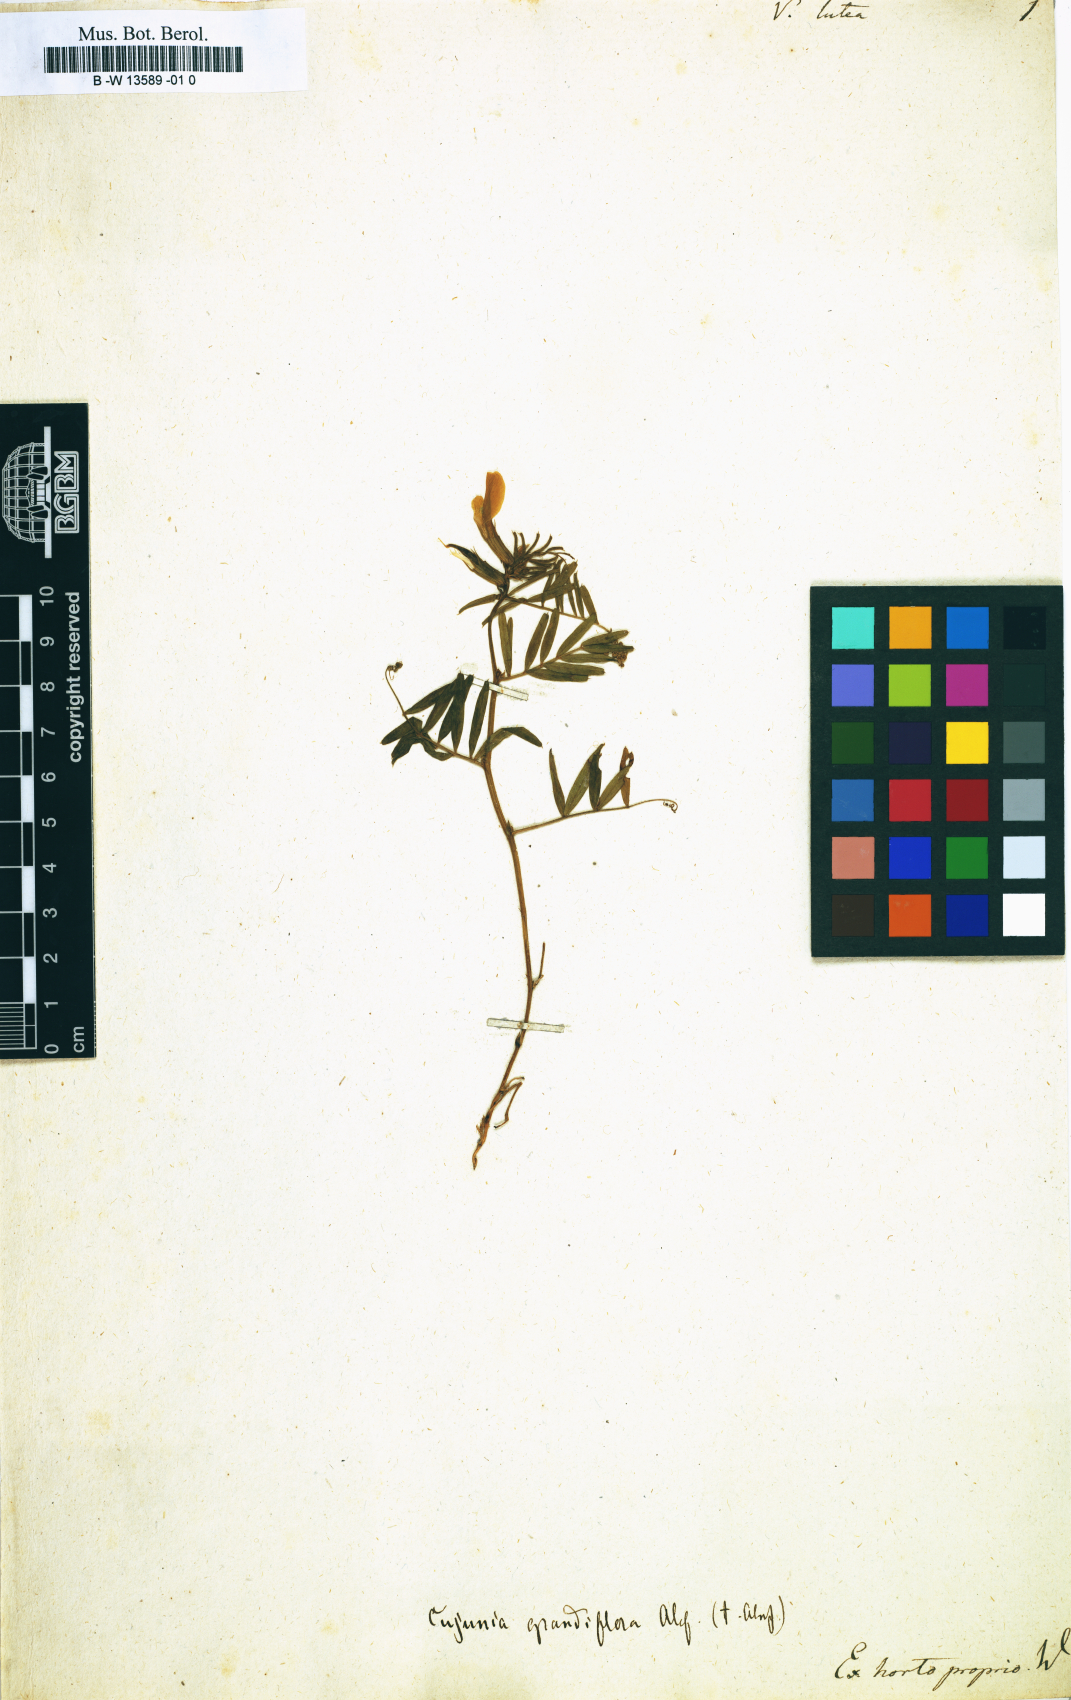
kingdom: Plantae
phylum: Tracheophyta
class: Magnoliopsida
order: Fabales
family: Fabaceae
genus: Vicia
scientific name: Vicia lutea
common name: Smooth yellow vetch
